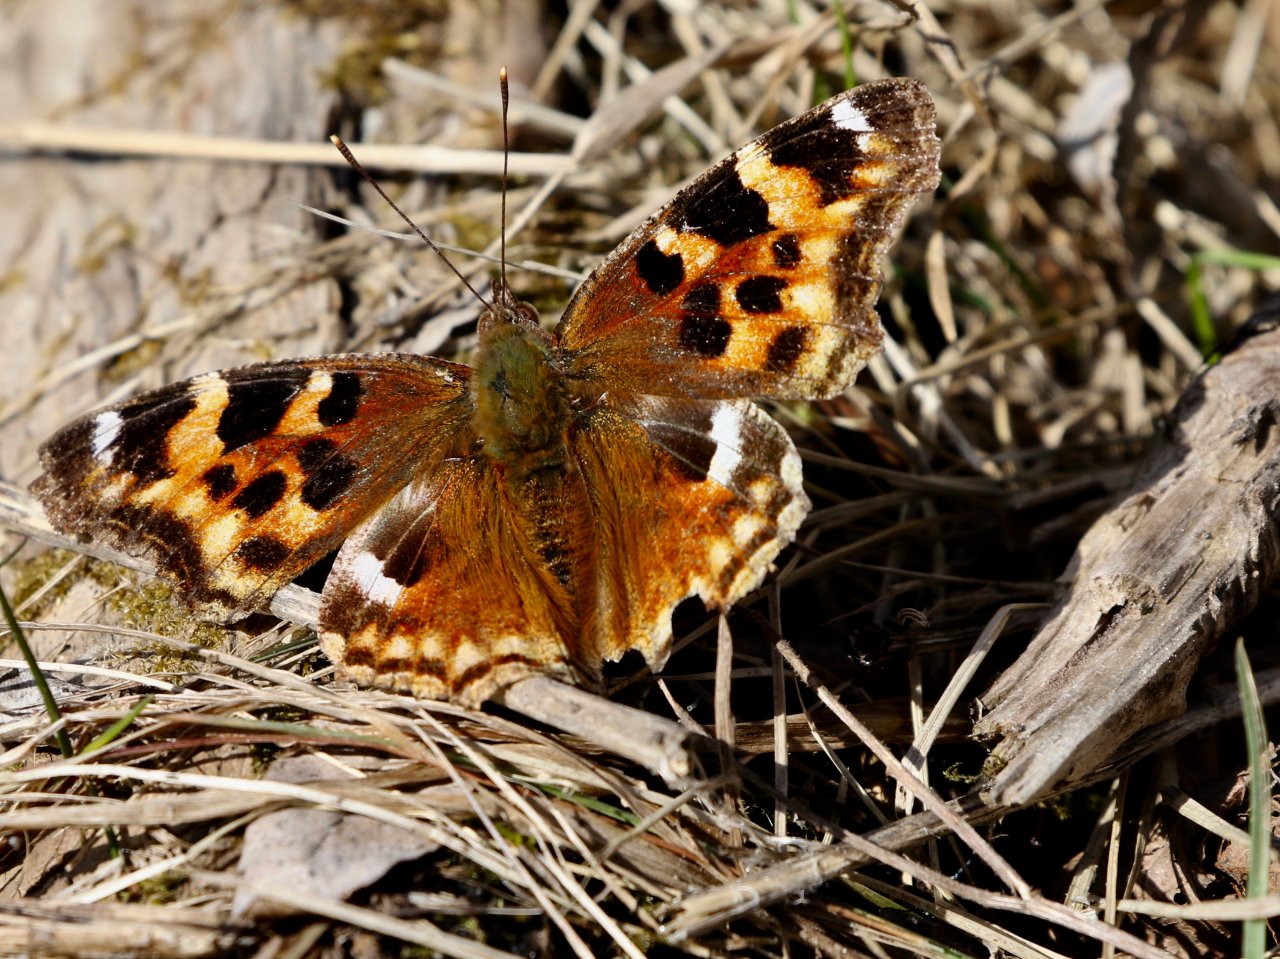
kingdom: Animalia
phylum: Arthropoda
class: Insecta
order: Lepidoptera
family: Nymphalidae
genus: Polygonia
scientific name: Polygonia vaualbum
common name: Compton Tortoiseshell
